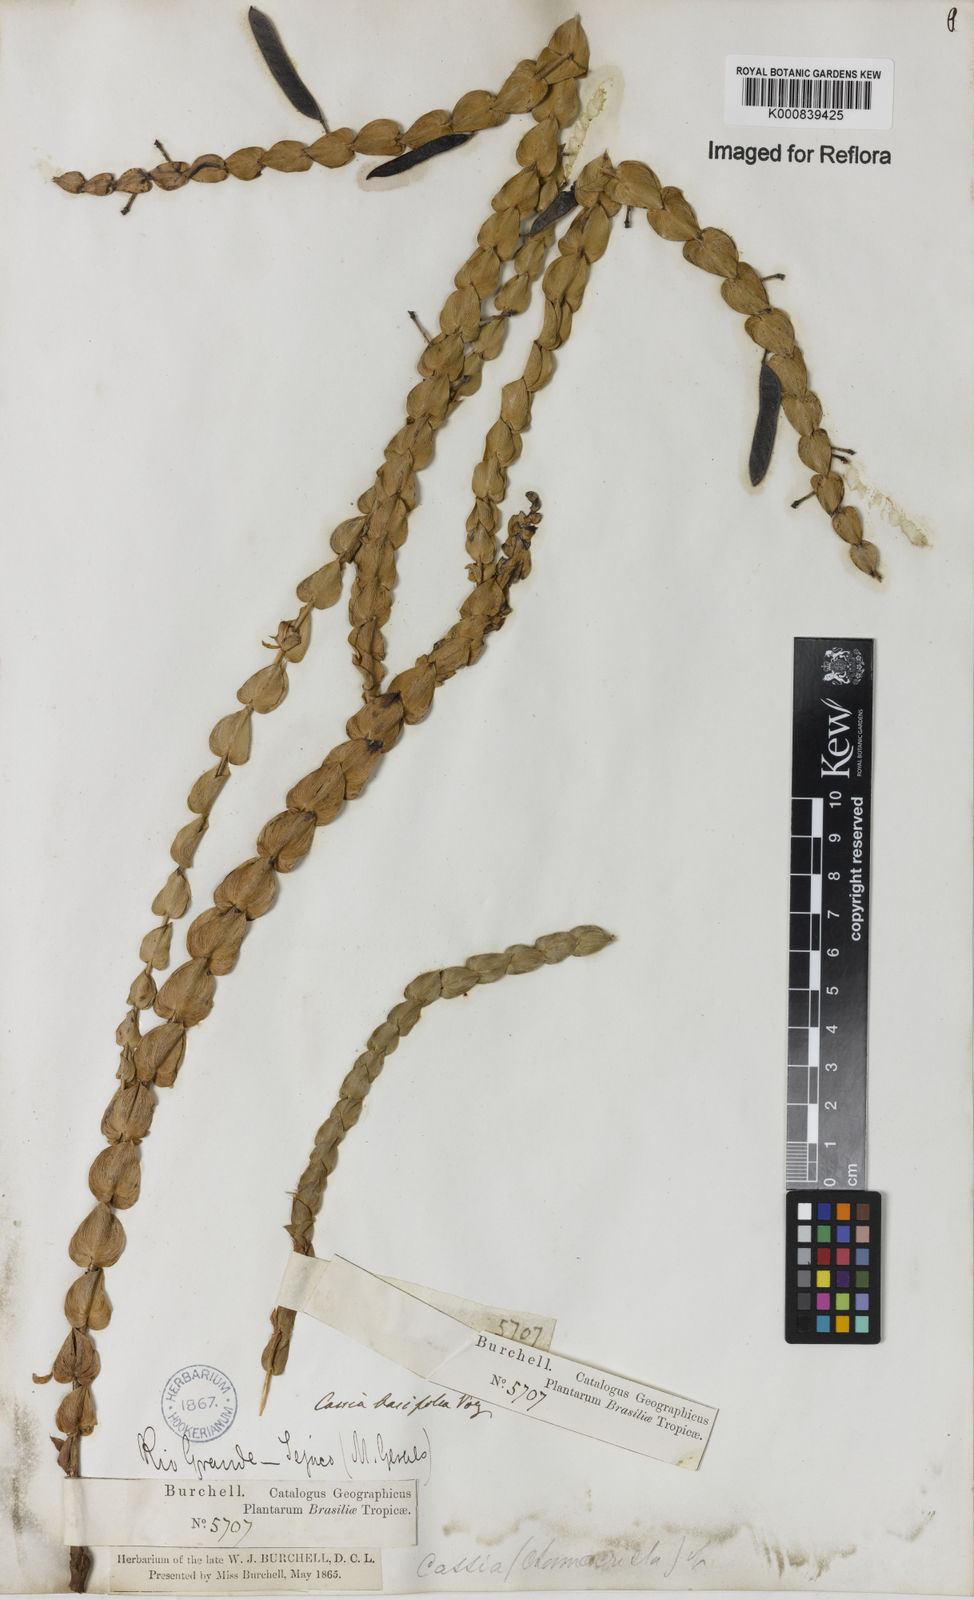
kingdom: Plantae
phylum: Tracheophyta
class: Magnoliopsida
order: Fabales
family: Fabaceae
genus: Chamaecrista
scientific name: Chamaecrista basifolia
